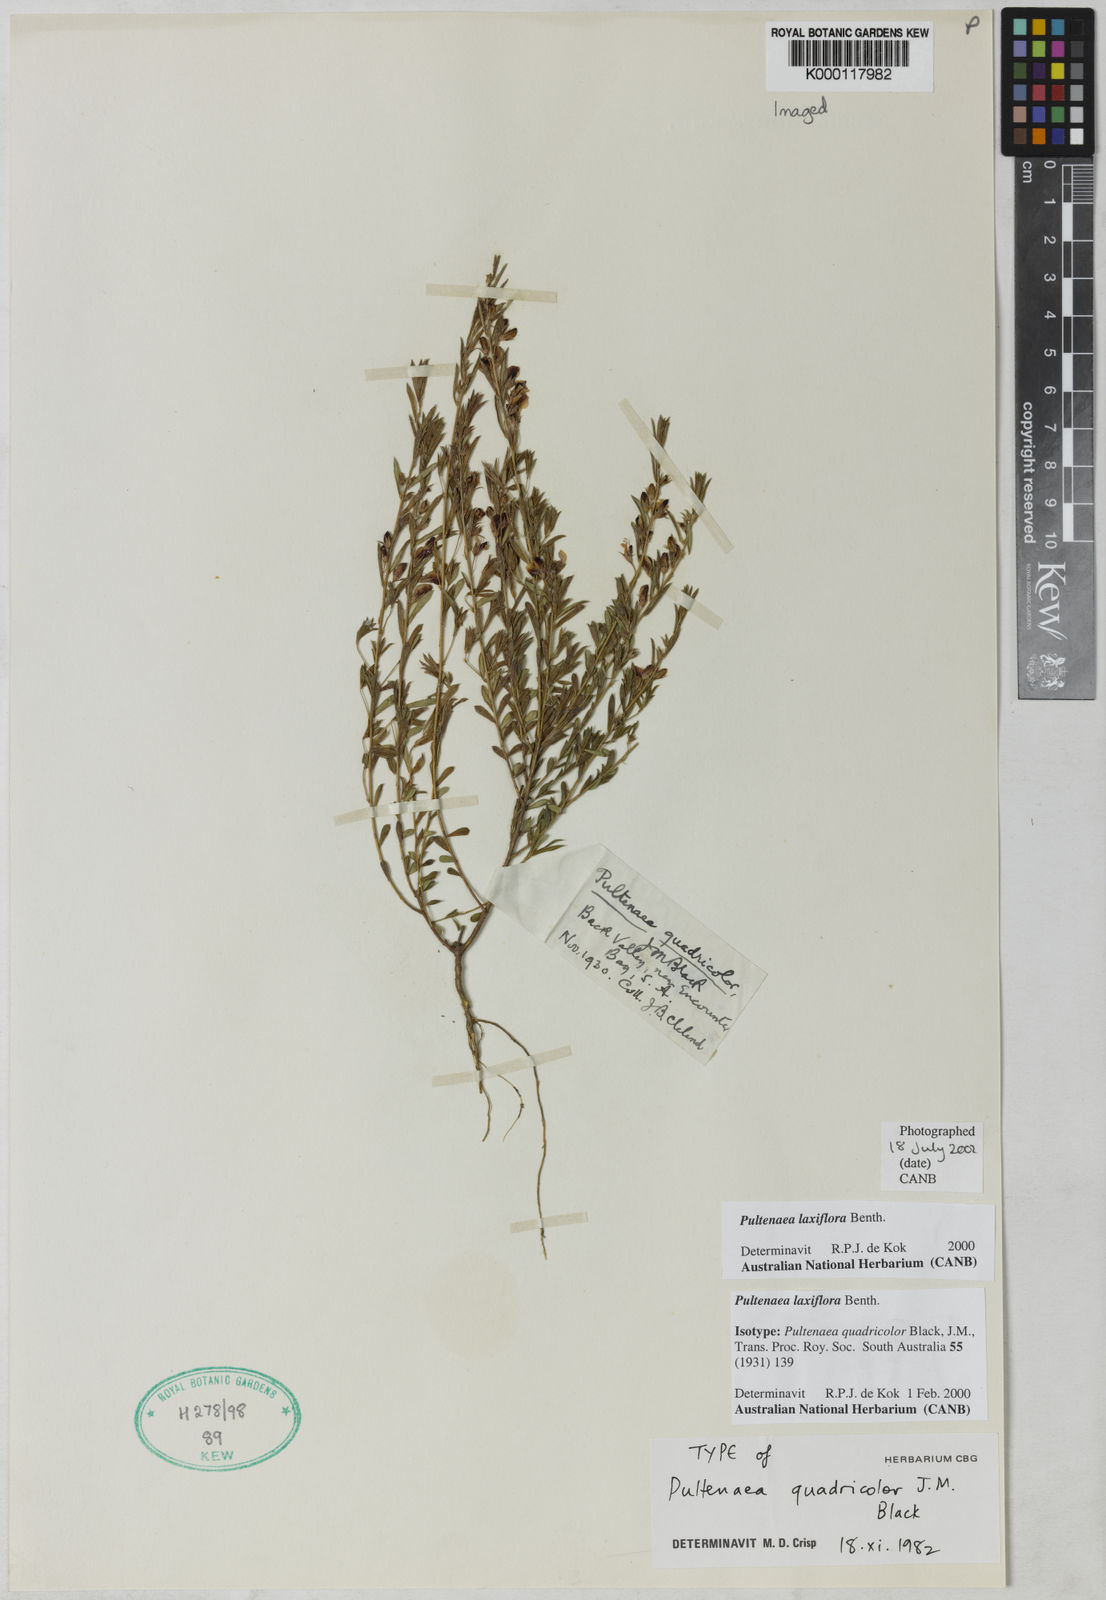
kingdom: Plantae
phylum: Tracheophyta
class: Magnoliopsida
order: Fabales
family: Fabaceae
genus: Pultenaea
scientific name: Pultenaea laxiflora
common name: Loose-flower bush-pea
